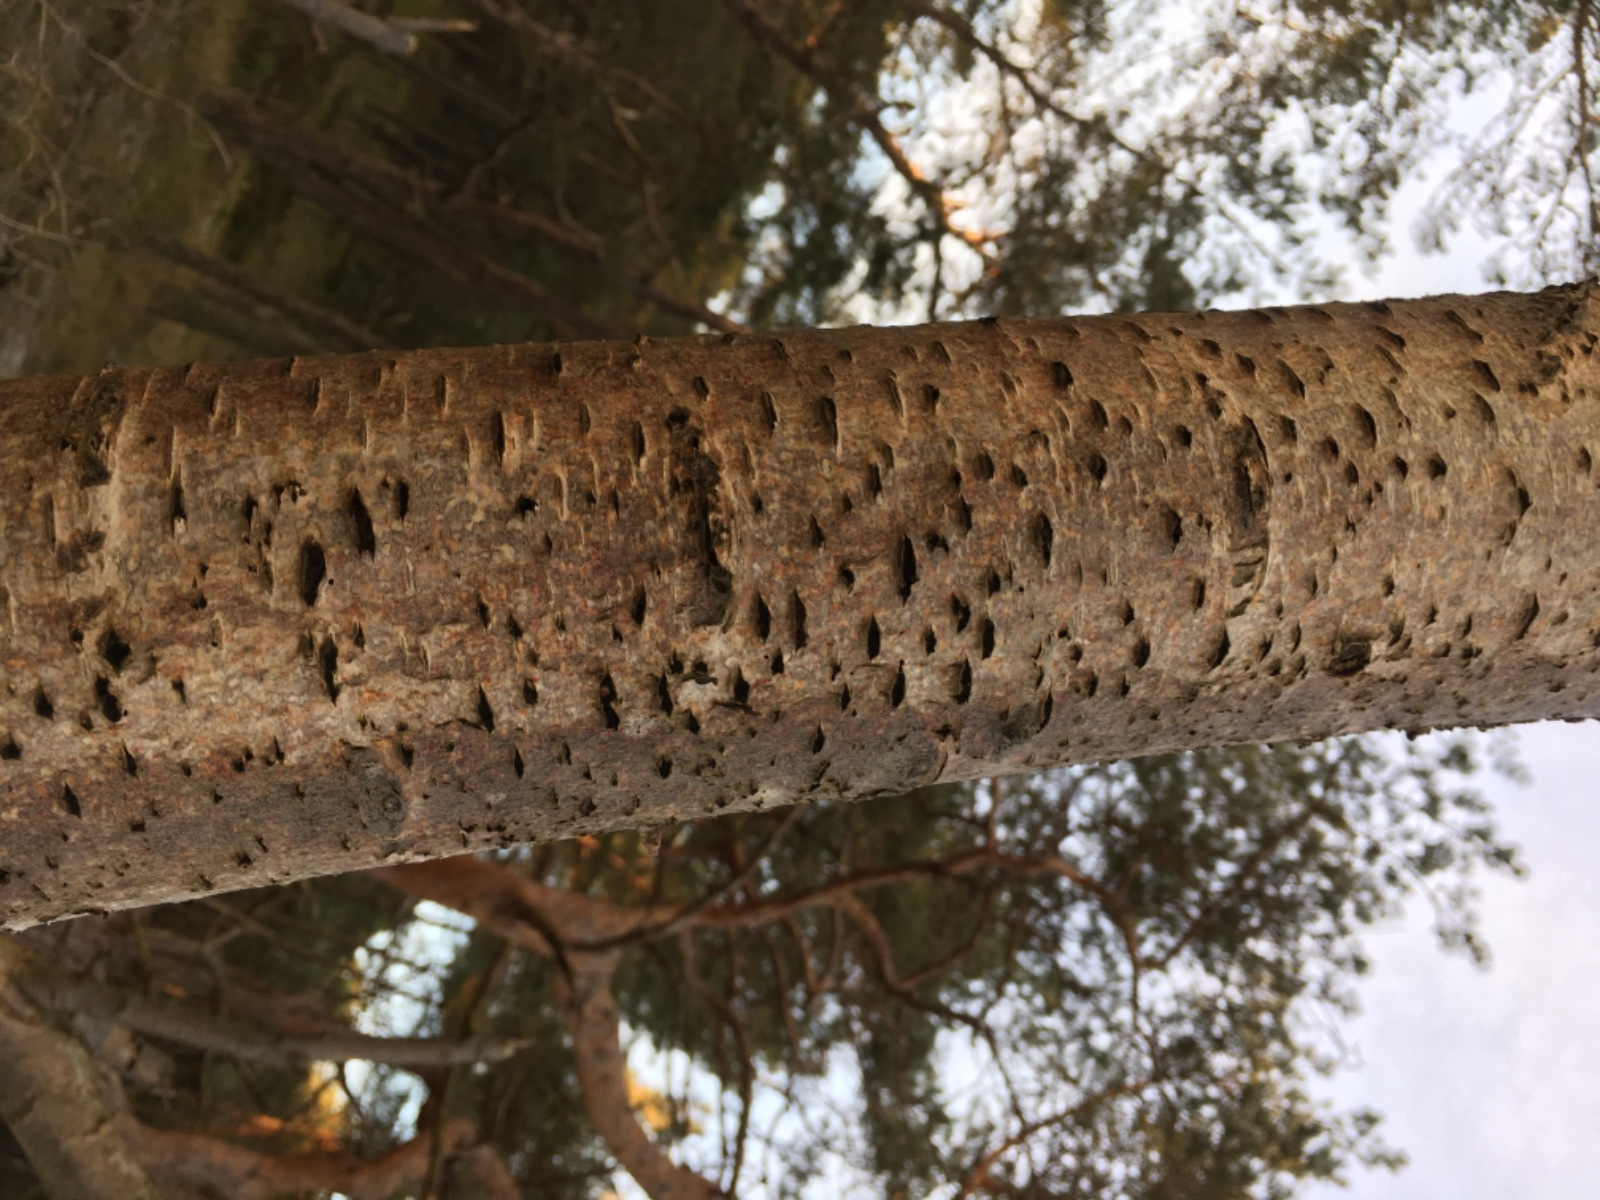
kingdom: Fungi
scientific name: Fungi
